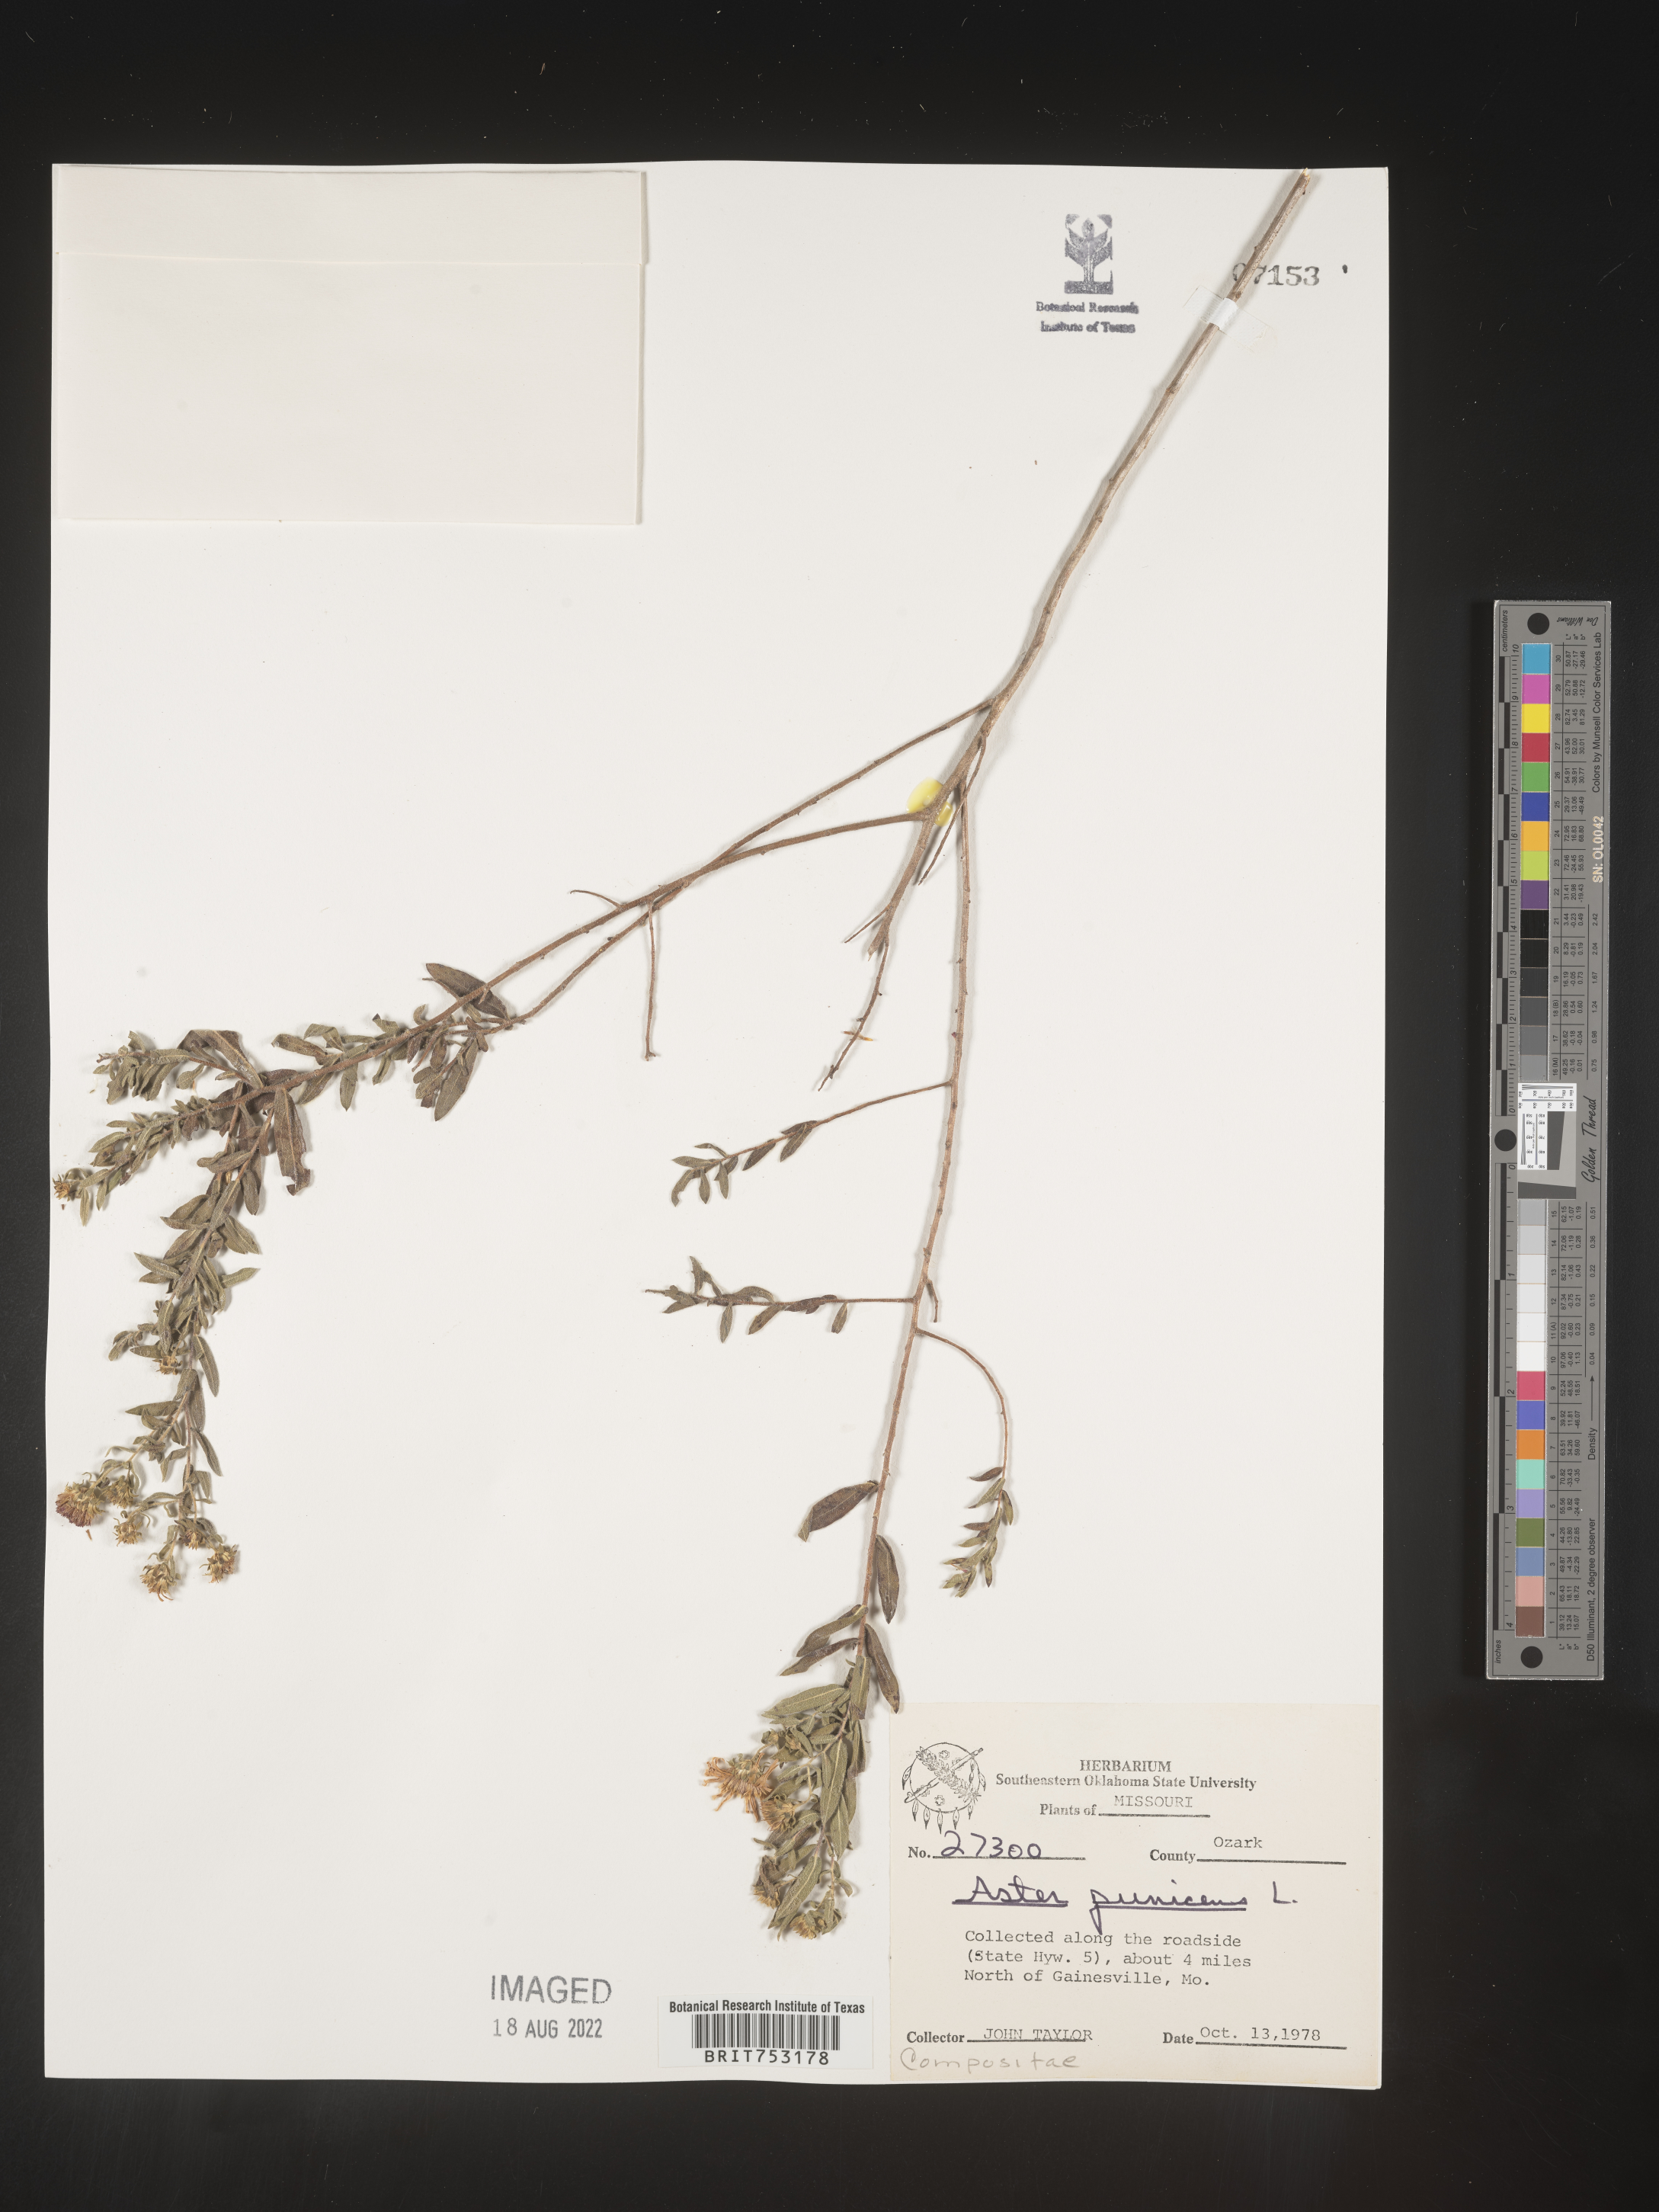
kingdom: Plantae
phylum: Tracheophyta
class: Magnoliopsida
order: Asterales
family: Asteraceae
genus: Symphyotrichum
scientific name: Symphyotrichum oblongifolium
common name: Aromatic aster
